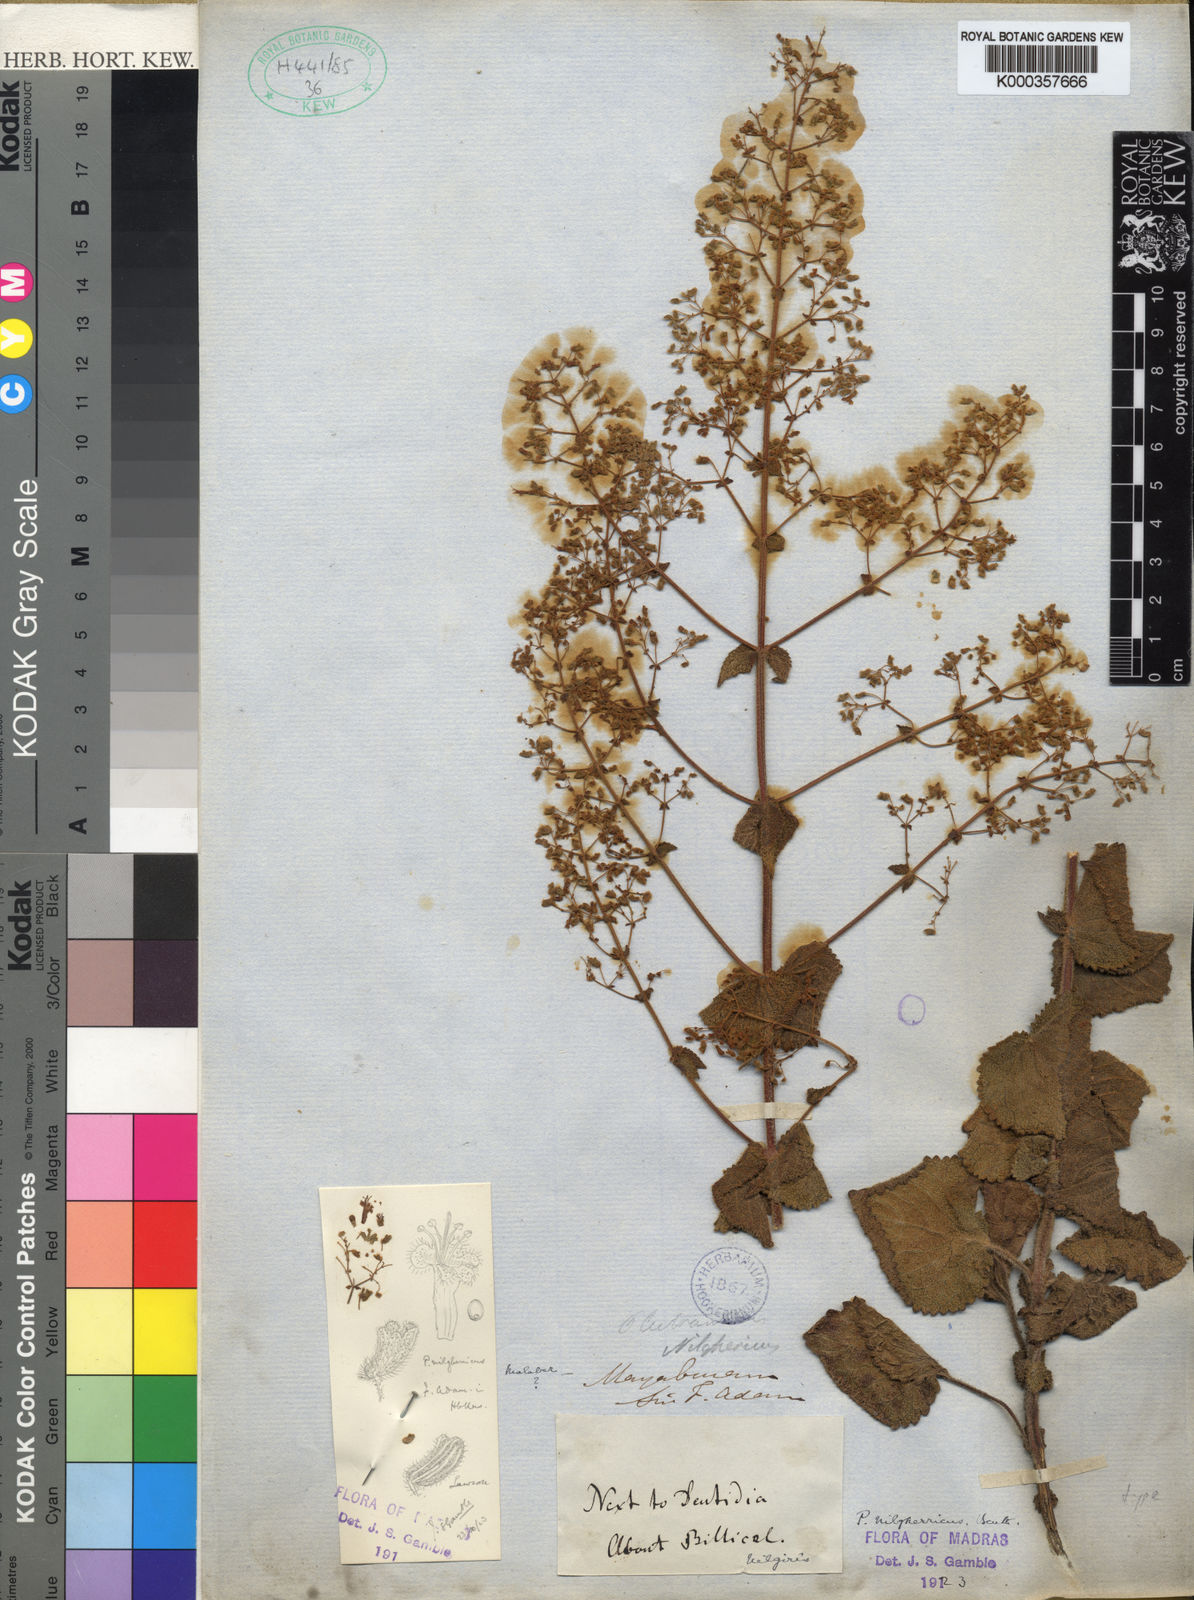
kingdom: Plantae
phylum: Tracheophyta
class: Magnoliopsida
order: Lamiales
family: Lamiaceae
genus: Isodon
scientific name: Isodon nilgherricus
